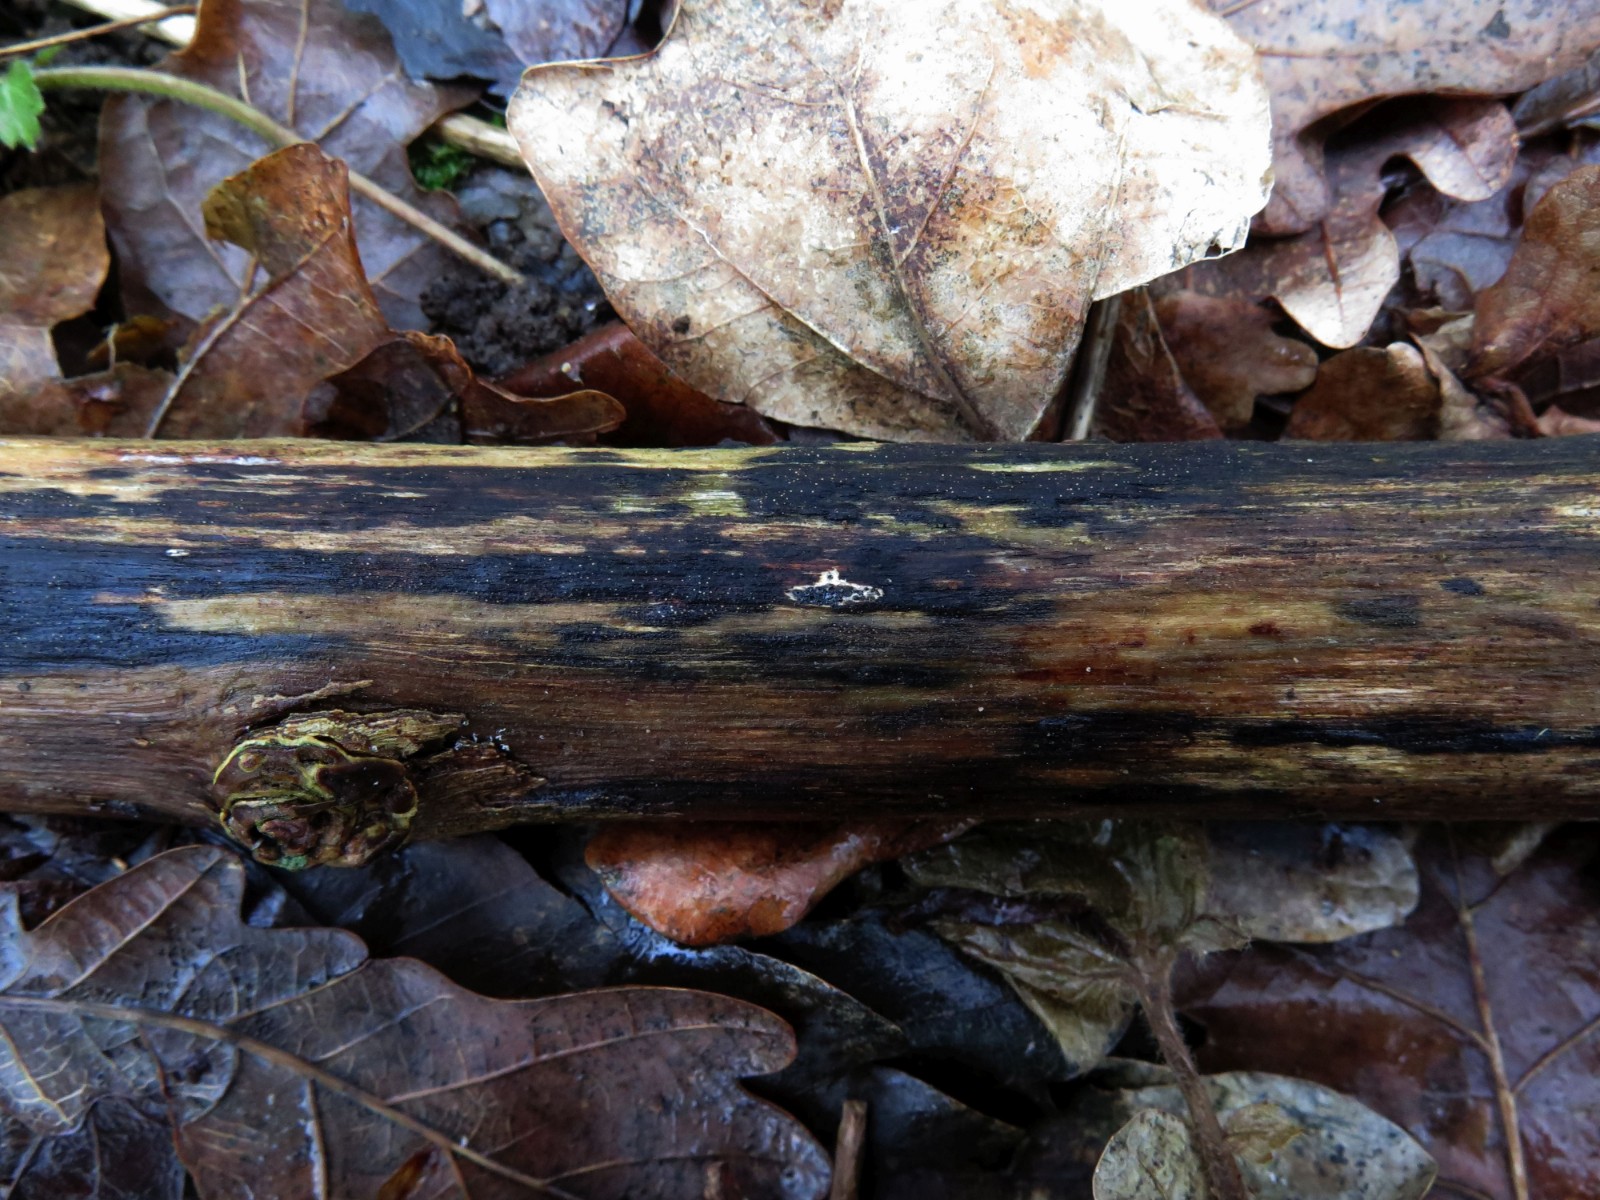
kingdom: Fungi
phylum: Ascomycota
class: Sordariomycetes
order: Xylariales
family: Diatrypaceae
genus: Eutypa
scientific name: Eutypa maura
